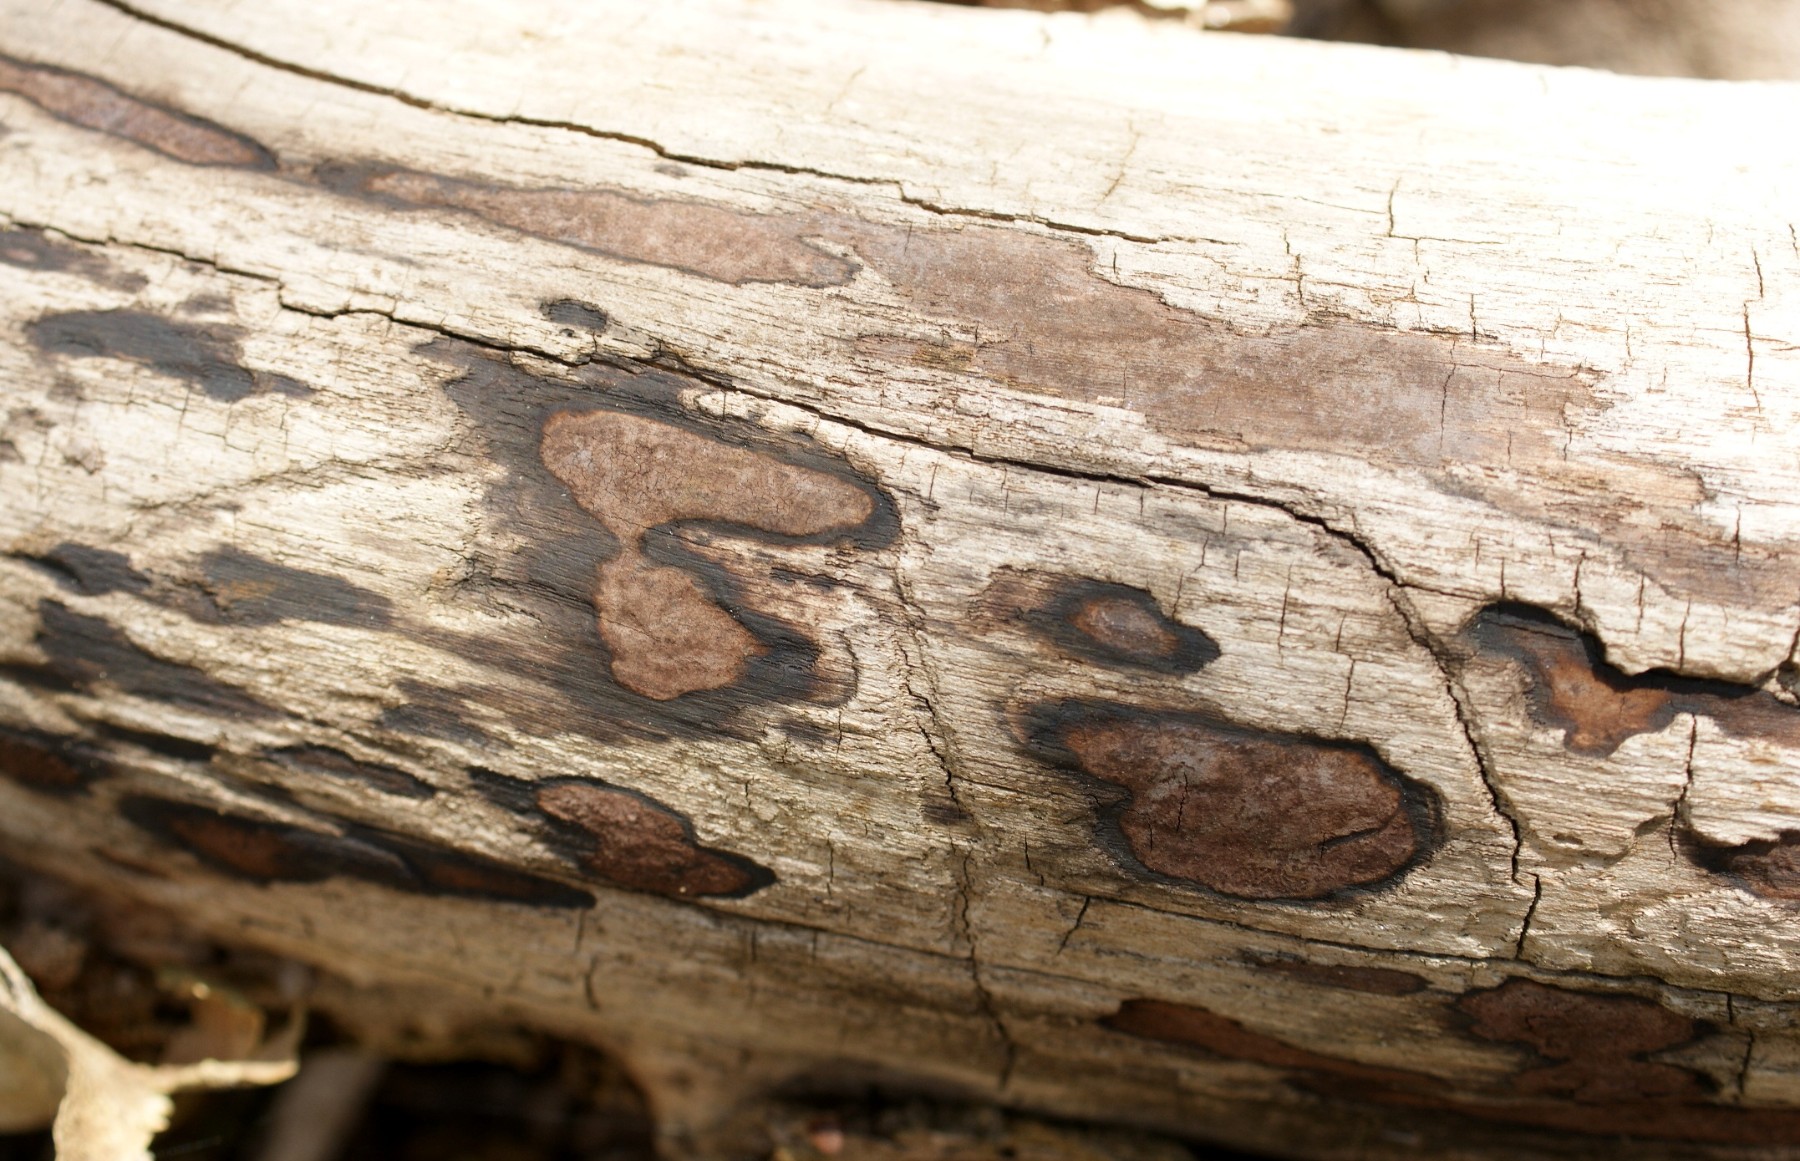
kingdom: Fungi
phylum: Ascomycota
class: Sordariomycetes
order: Xylariales
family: Hypoxylaceae
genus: Hypoxylon
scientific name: Hypoxylon petriniae
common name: nedsænket kulbær
